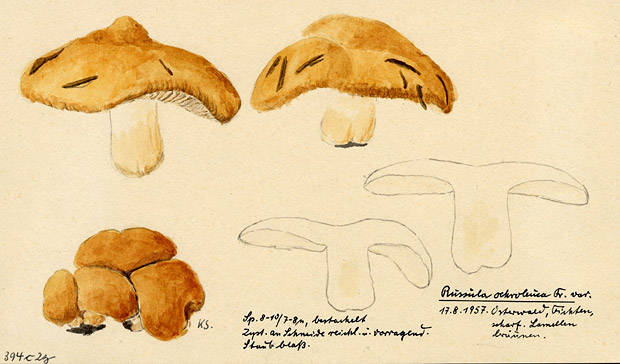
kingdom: Fungi
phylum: Basidiomycota
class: Agaricomycetes
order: Russulales
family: Russulaceae
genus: Russula
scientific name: Russula ochroleuca
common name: Common yellow russula
